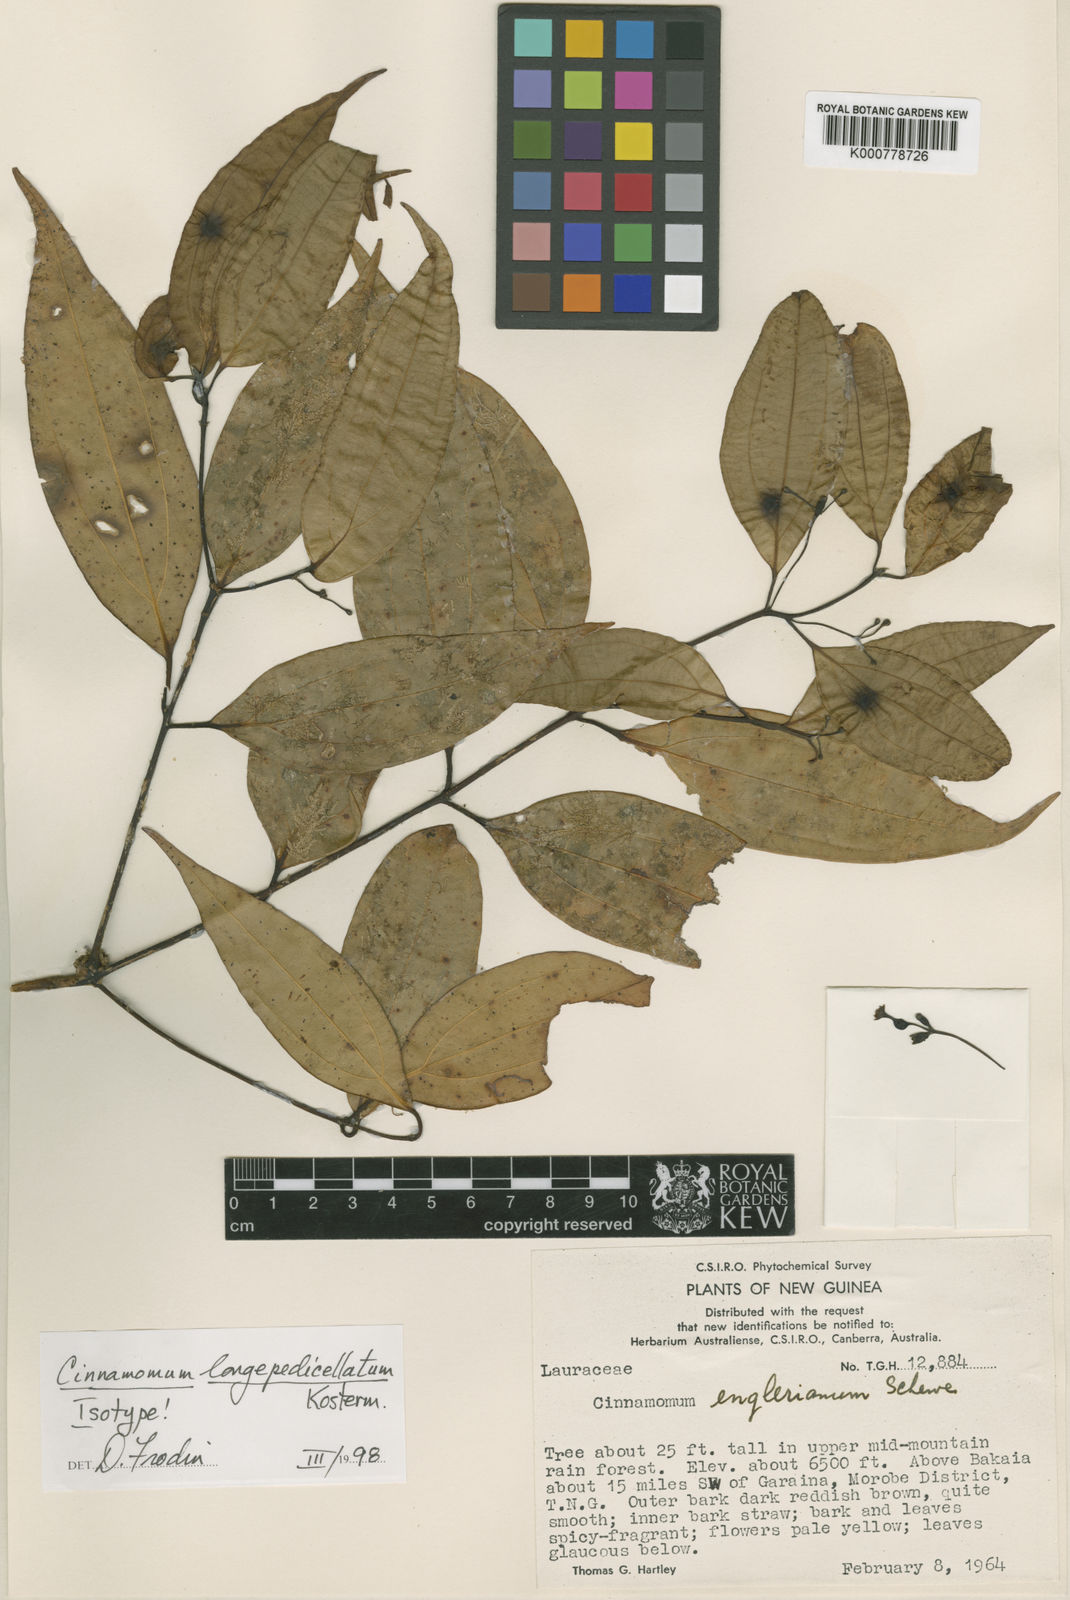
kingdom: Plantae
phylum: Tracheophyta
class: Magnoliopsida
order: Laurales
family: Lauraceae
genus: Cinnamomum
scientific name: Cinnamomum longipedicellatum
